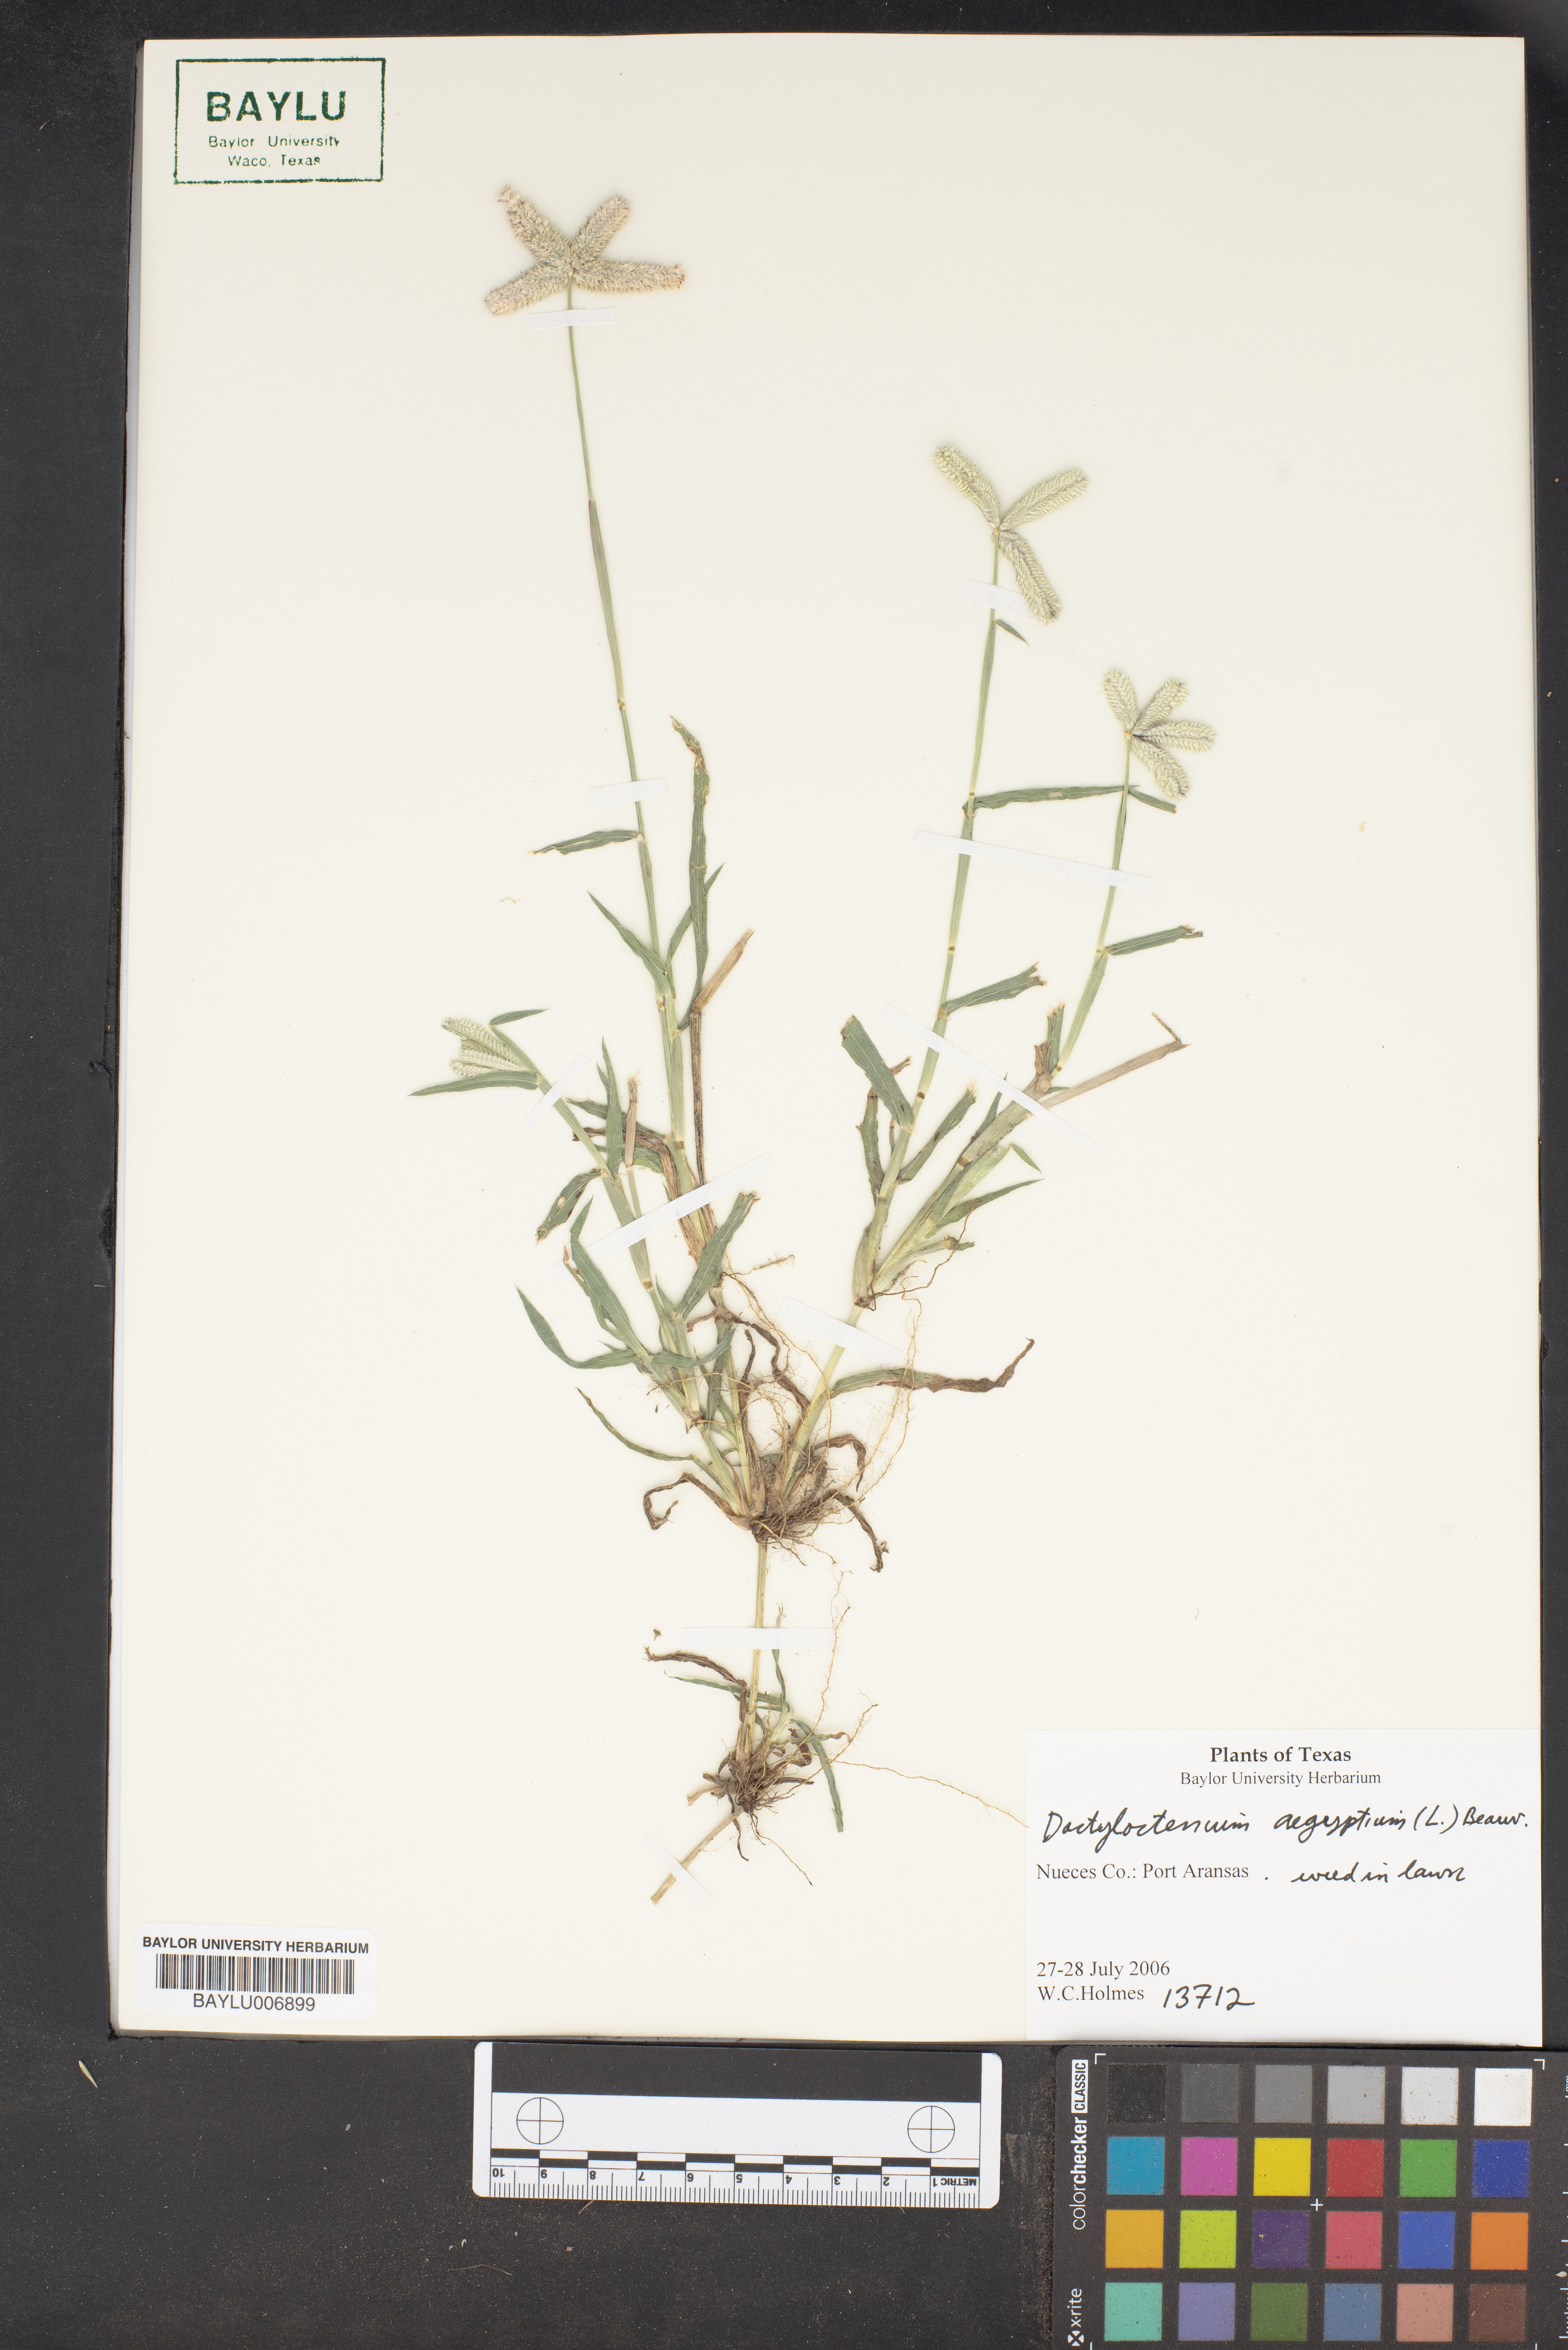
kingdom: Plantae
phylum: Tracheophyta
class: Liliopsida
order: Poales
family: Poaceae
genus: Dactyloctenium
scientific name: Dactyloctenium aegyptium
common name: Egyptian grass
